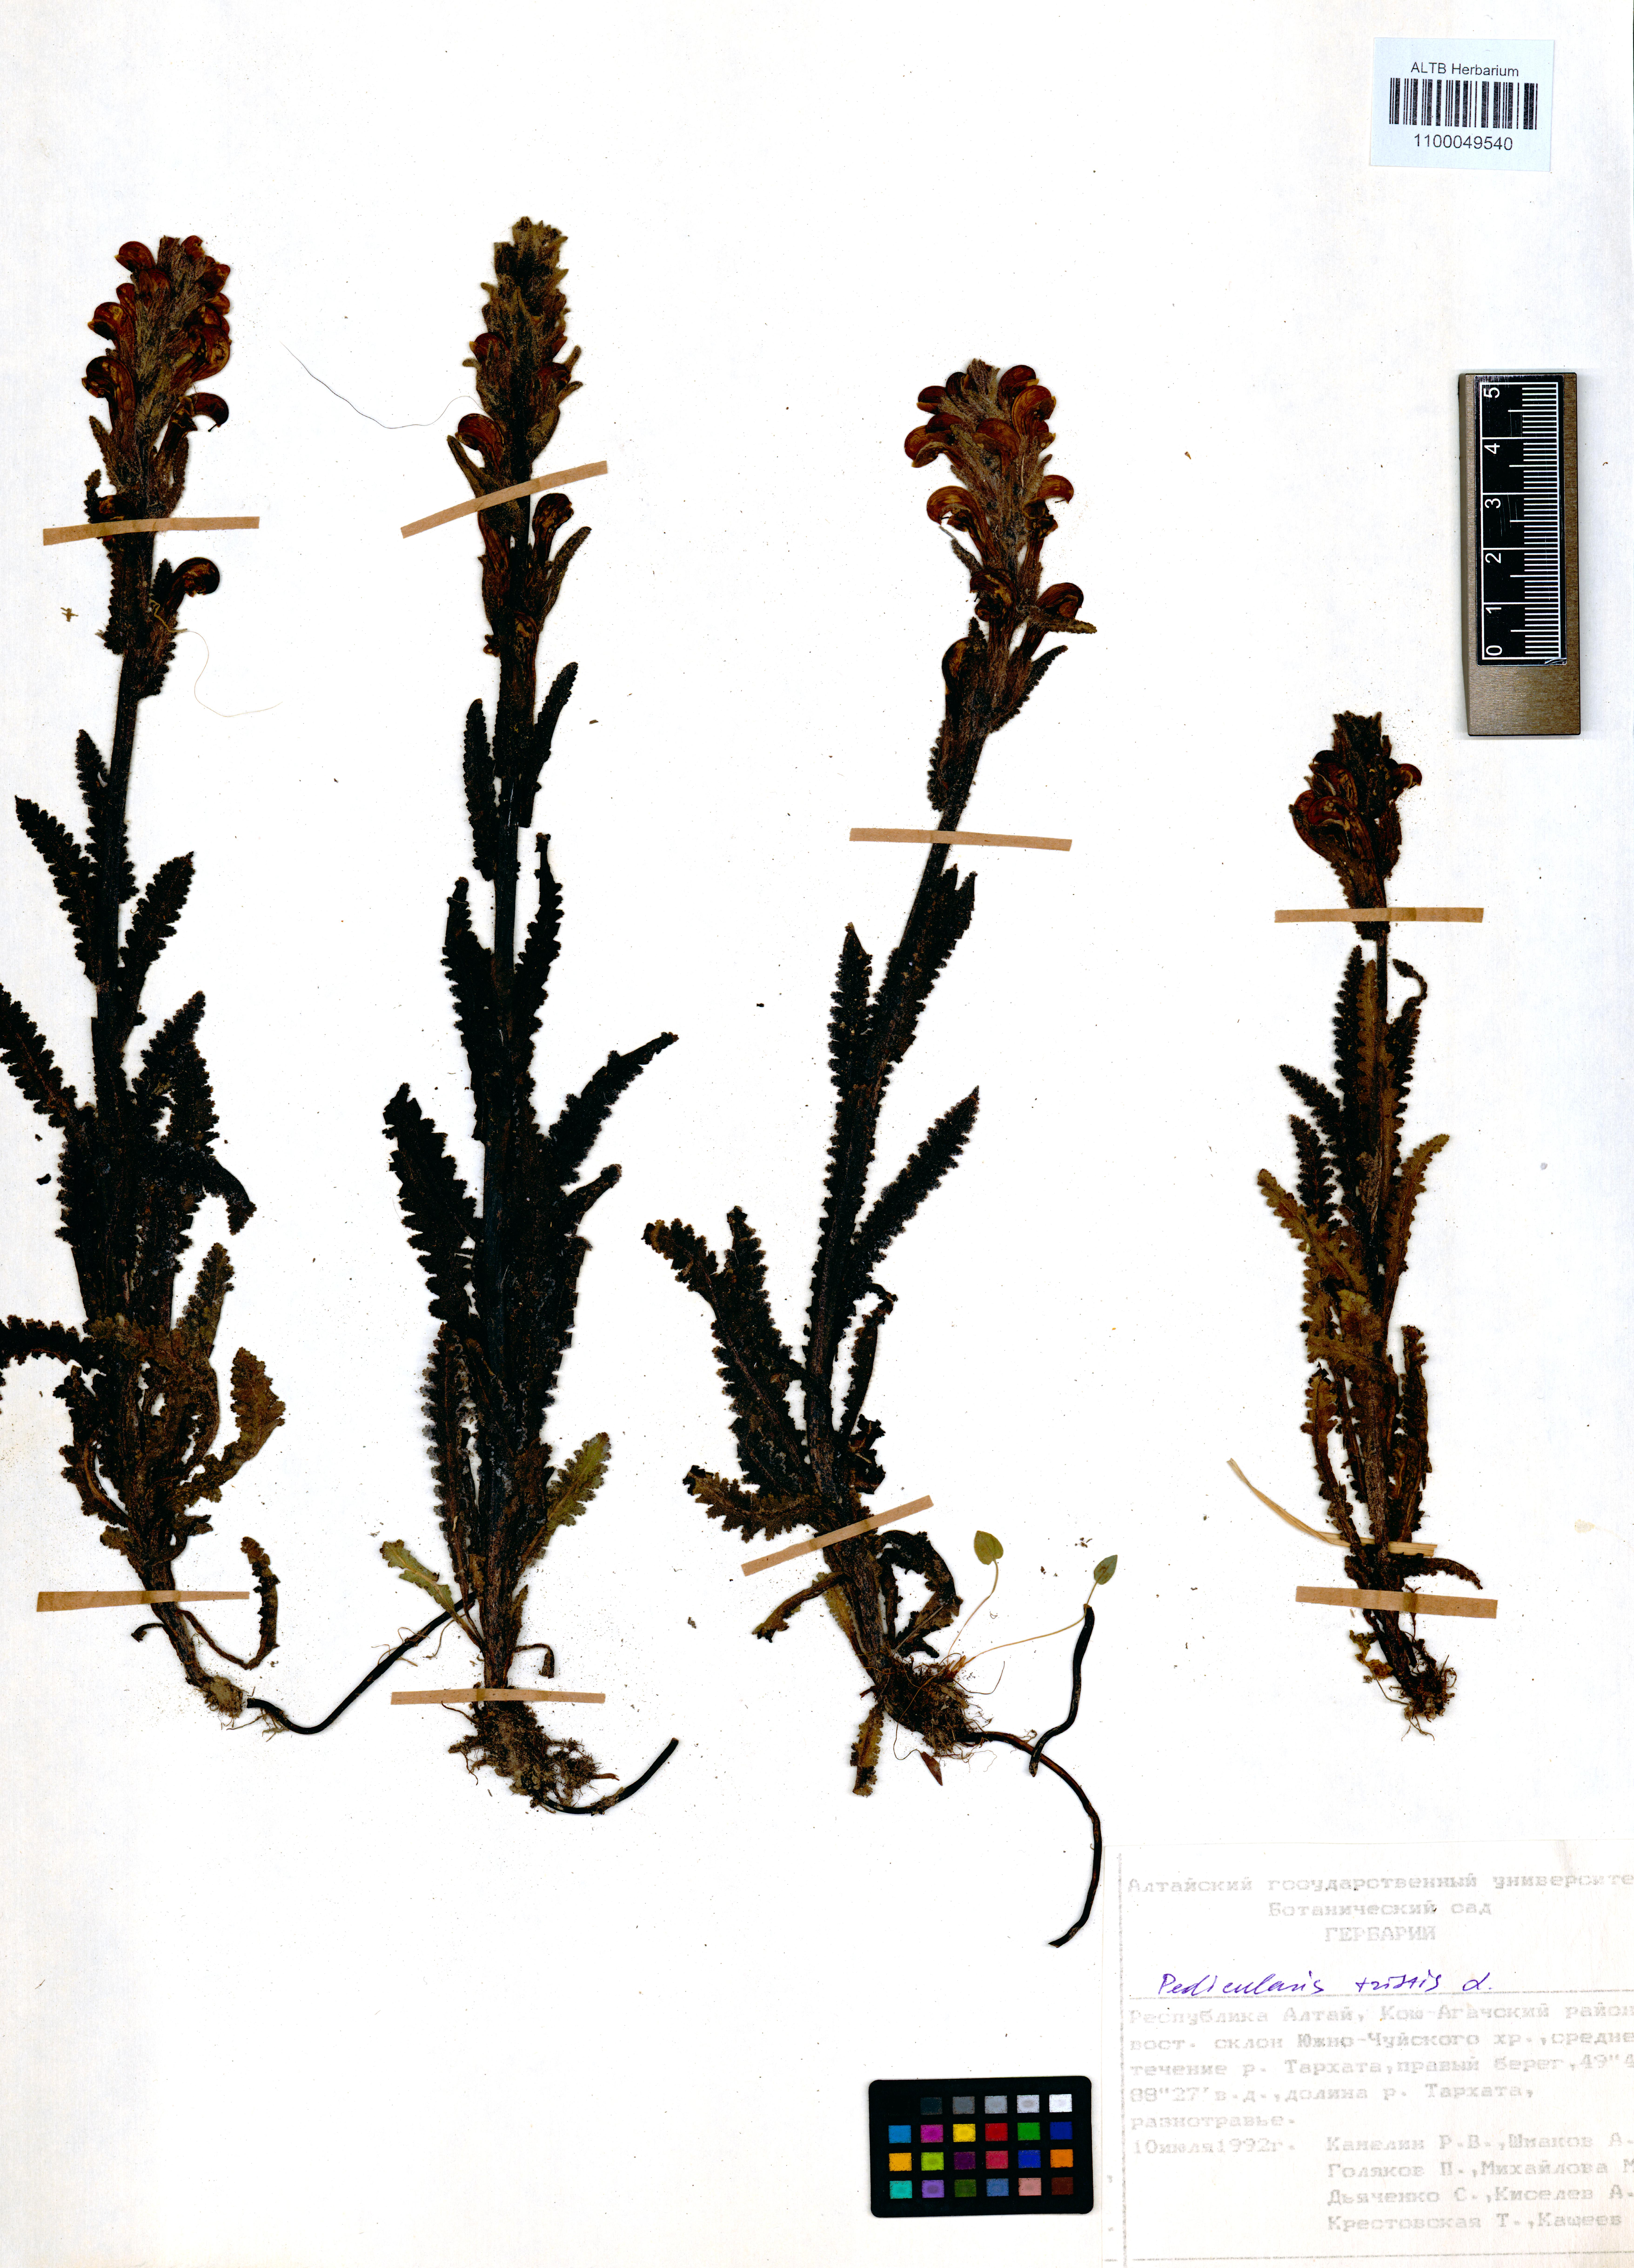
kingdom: Plantae
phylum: Tracheophyta
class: Magnoliopsida
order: Lamiales
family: Orobanchaceae
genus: Pedicularis
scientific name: Pedicularis tristis
